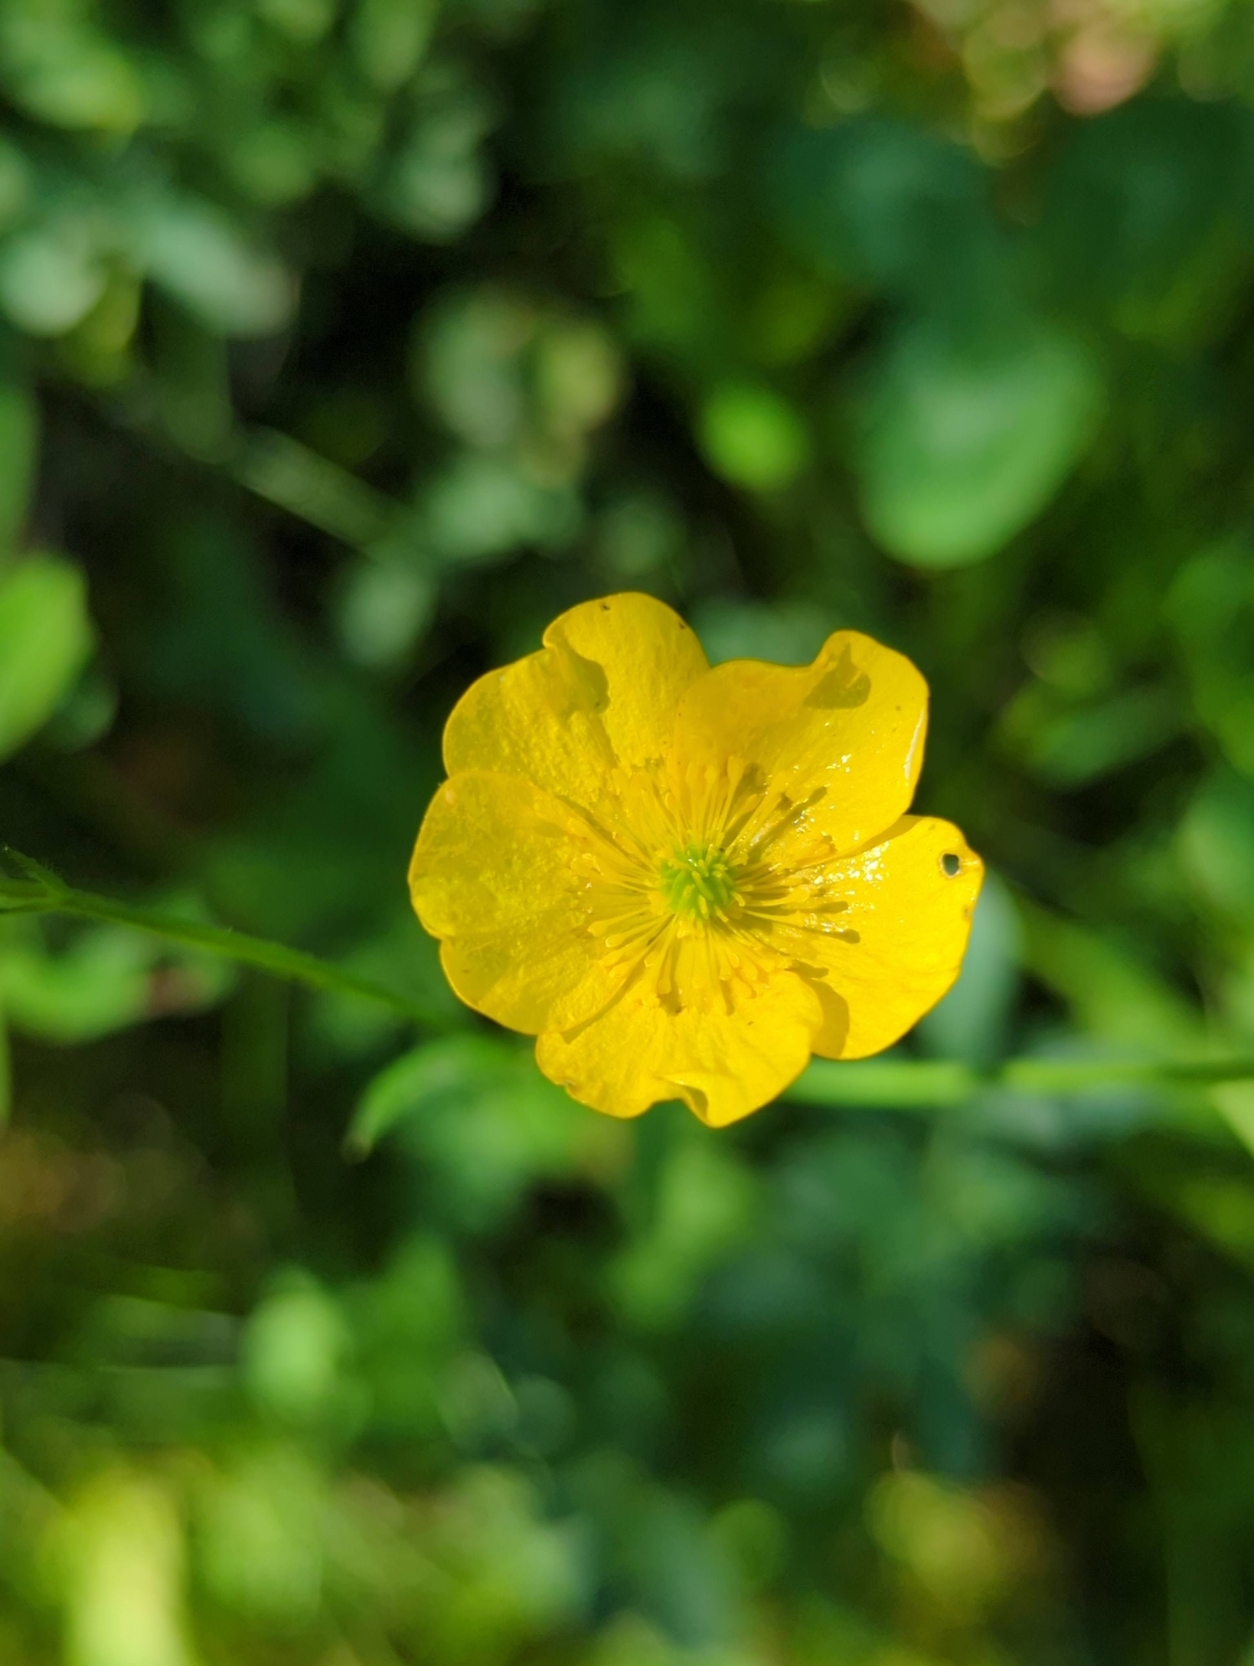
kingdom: Plantae
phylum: Tracheophyta
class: Magnoliopsida
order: Ranunculales
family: Ranunculaceae
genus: Ranunculus
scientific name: Ranunculus
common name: Ranunkelslægten
